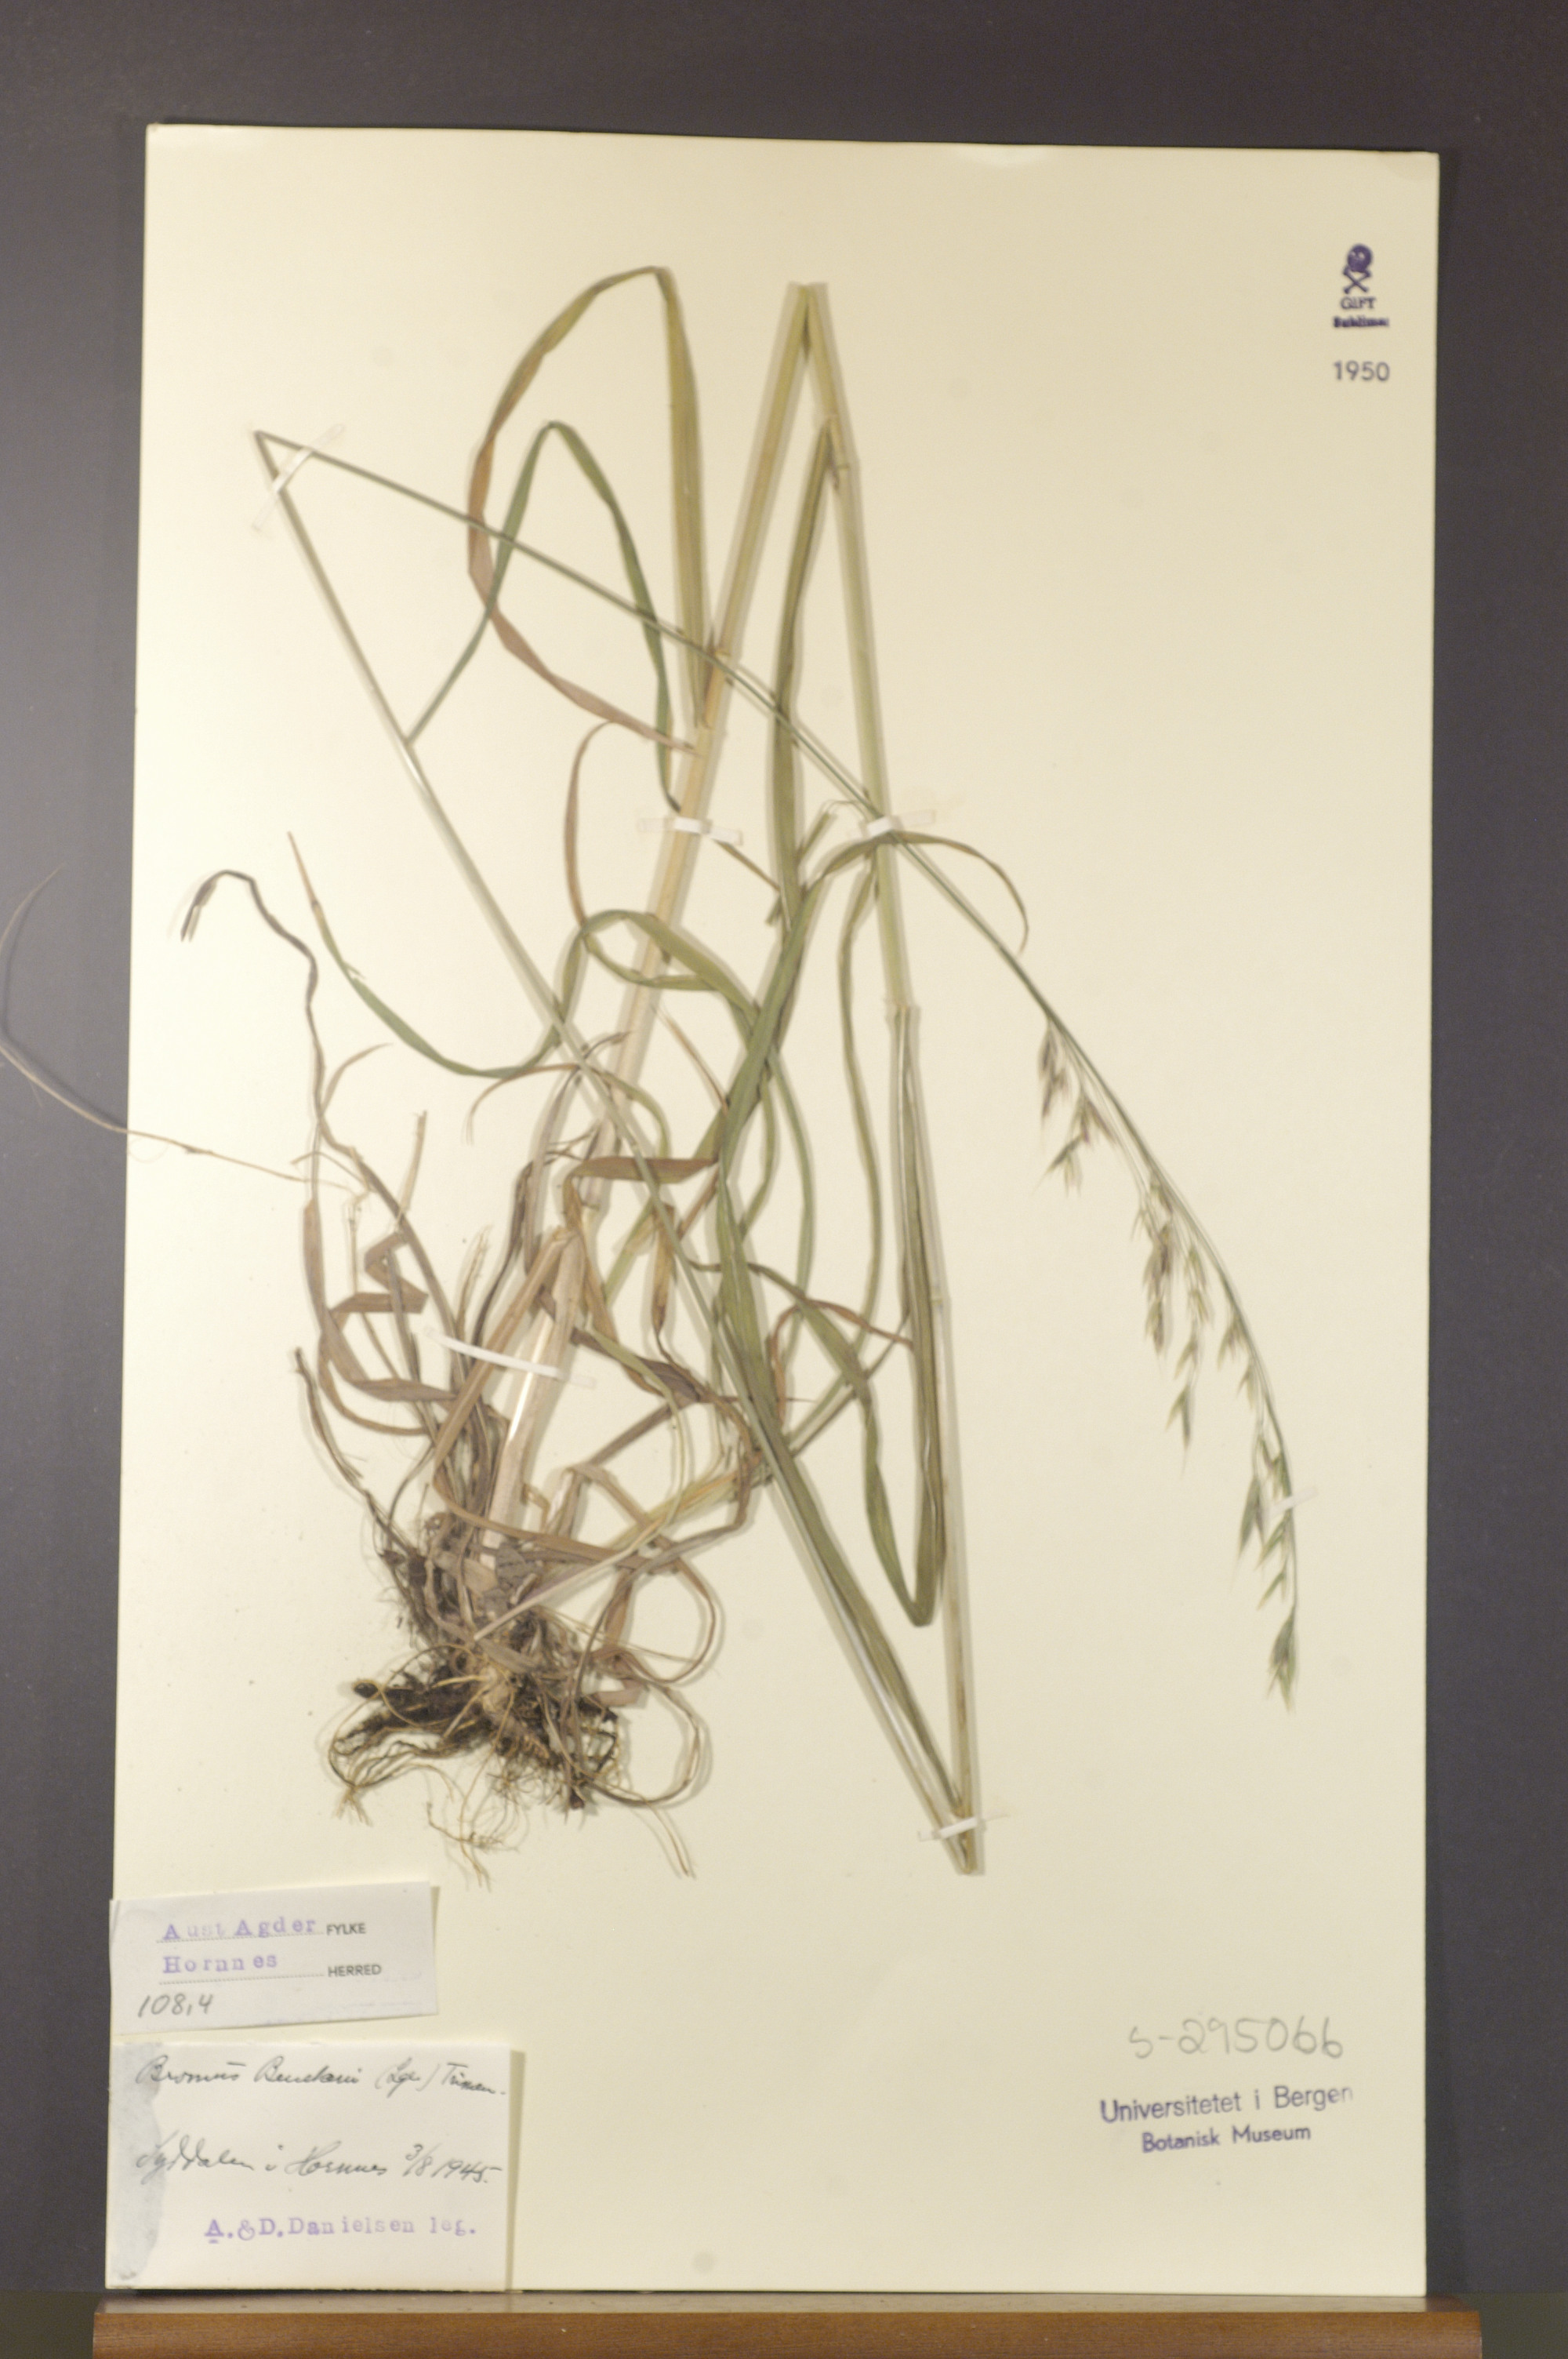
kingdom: Plantae
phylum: Tracheophyta
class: Liliopsida
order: Poales
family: Poaceae
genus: Bromus
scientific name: Bromus benekenii
